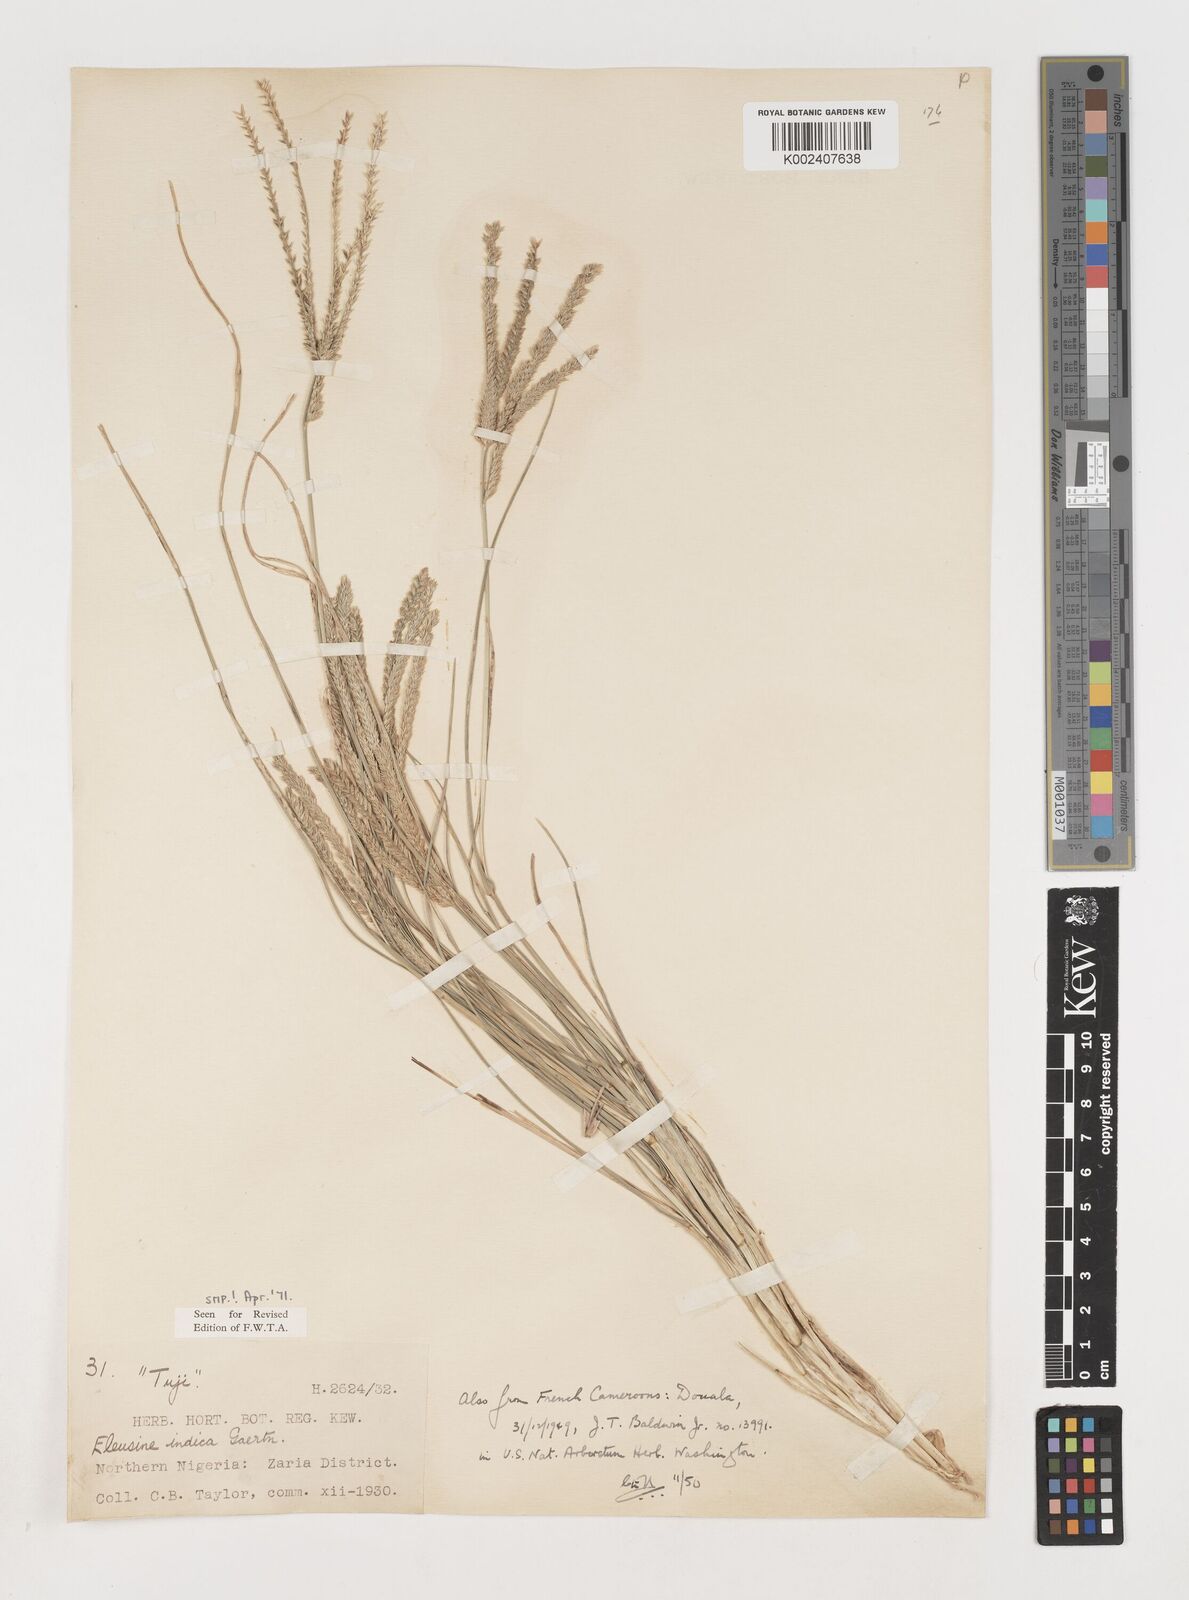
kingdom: Plantae
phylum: Tracheophyta
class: Liliopsida
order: Poales
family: Poaceae
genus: Eleusine
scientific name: Eleusine indica
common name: Yard-grass
